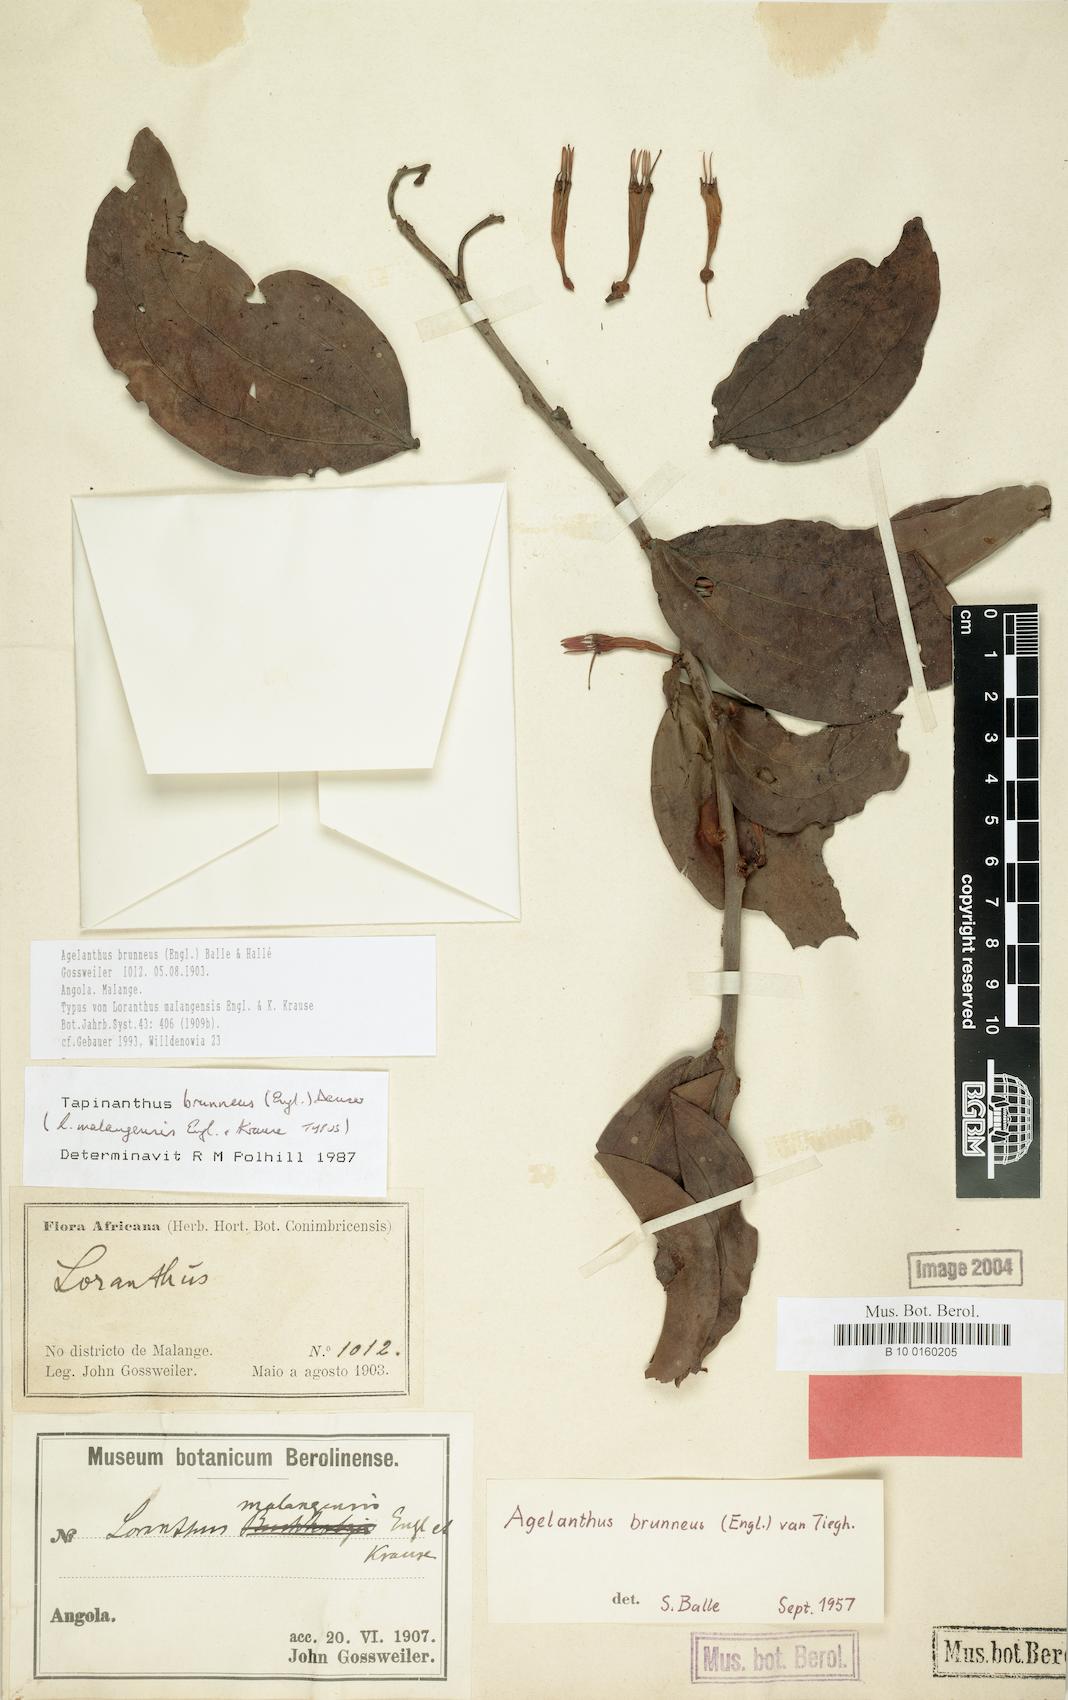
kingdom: Plantae
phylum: Tracheophyta
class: Magnoliopsida
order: Santalales
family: Loranthaceae
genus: Agelanthus
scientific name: Agelanthus brunneus
